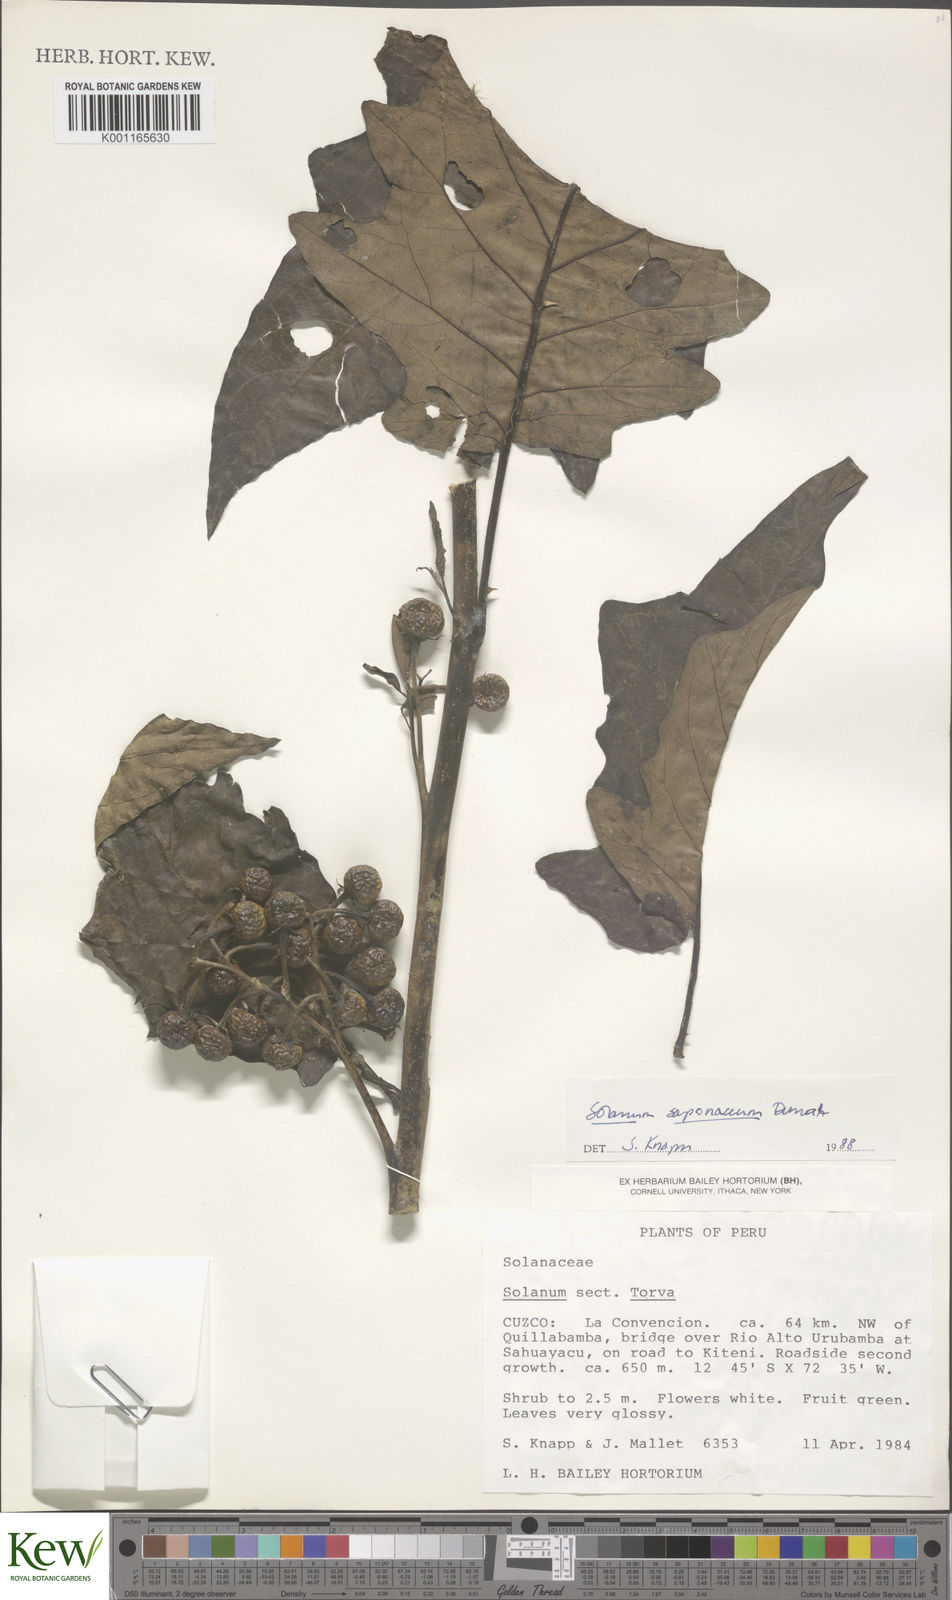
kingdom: Plantae
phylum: Tracheophyta
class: Magnoliopsida
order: Solanales
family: Solanaceae
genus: Solanum
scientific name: Solanum saponaceum
